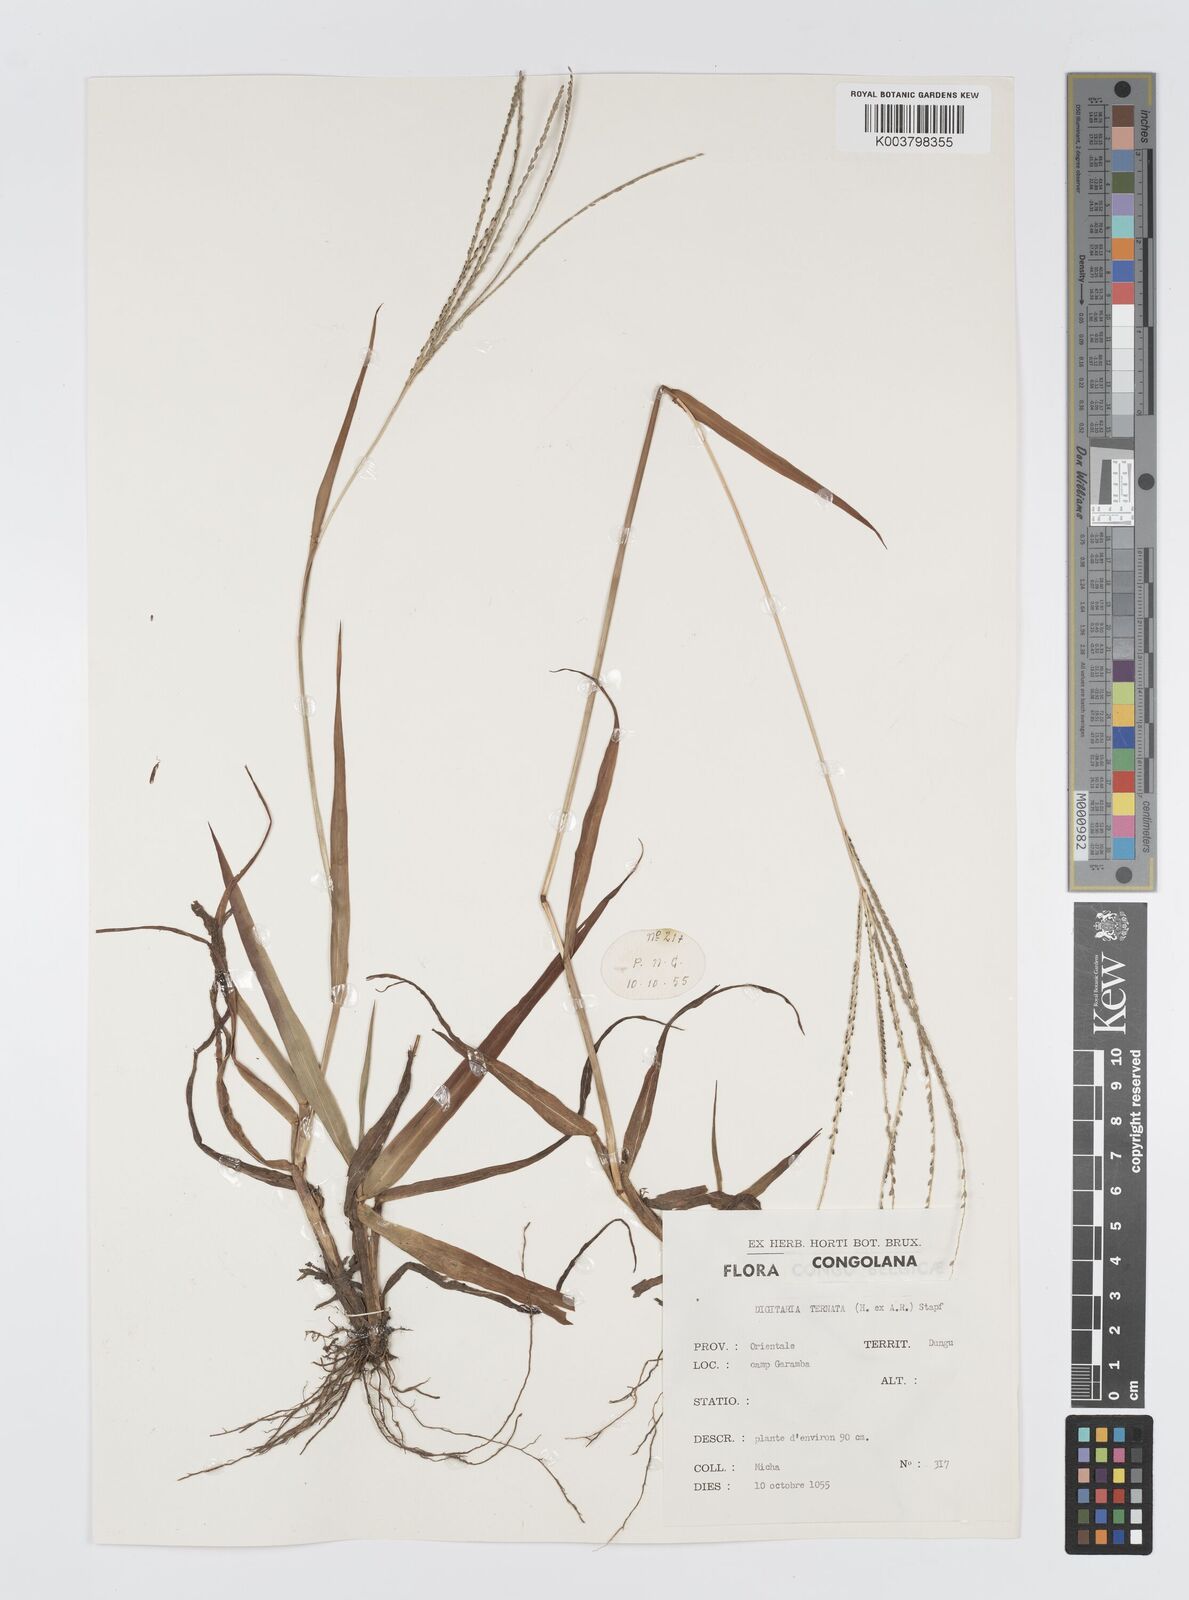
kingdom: Plantae
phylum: Tracheophyta
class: Liliopsida
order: Poales
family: Poaceae
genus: Digitaria
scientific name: Digitaria ternata
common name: Blackseed crabgrass
